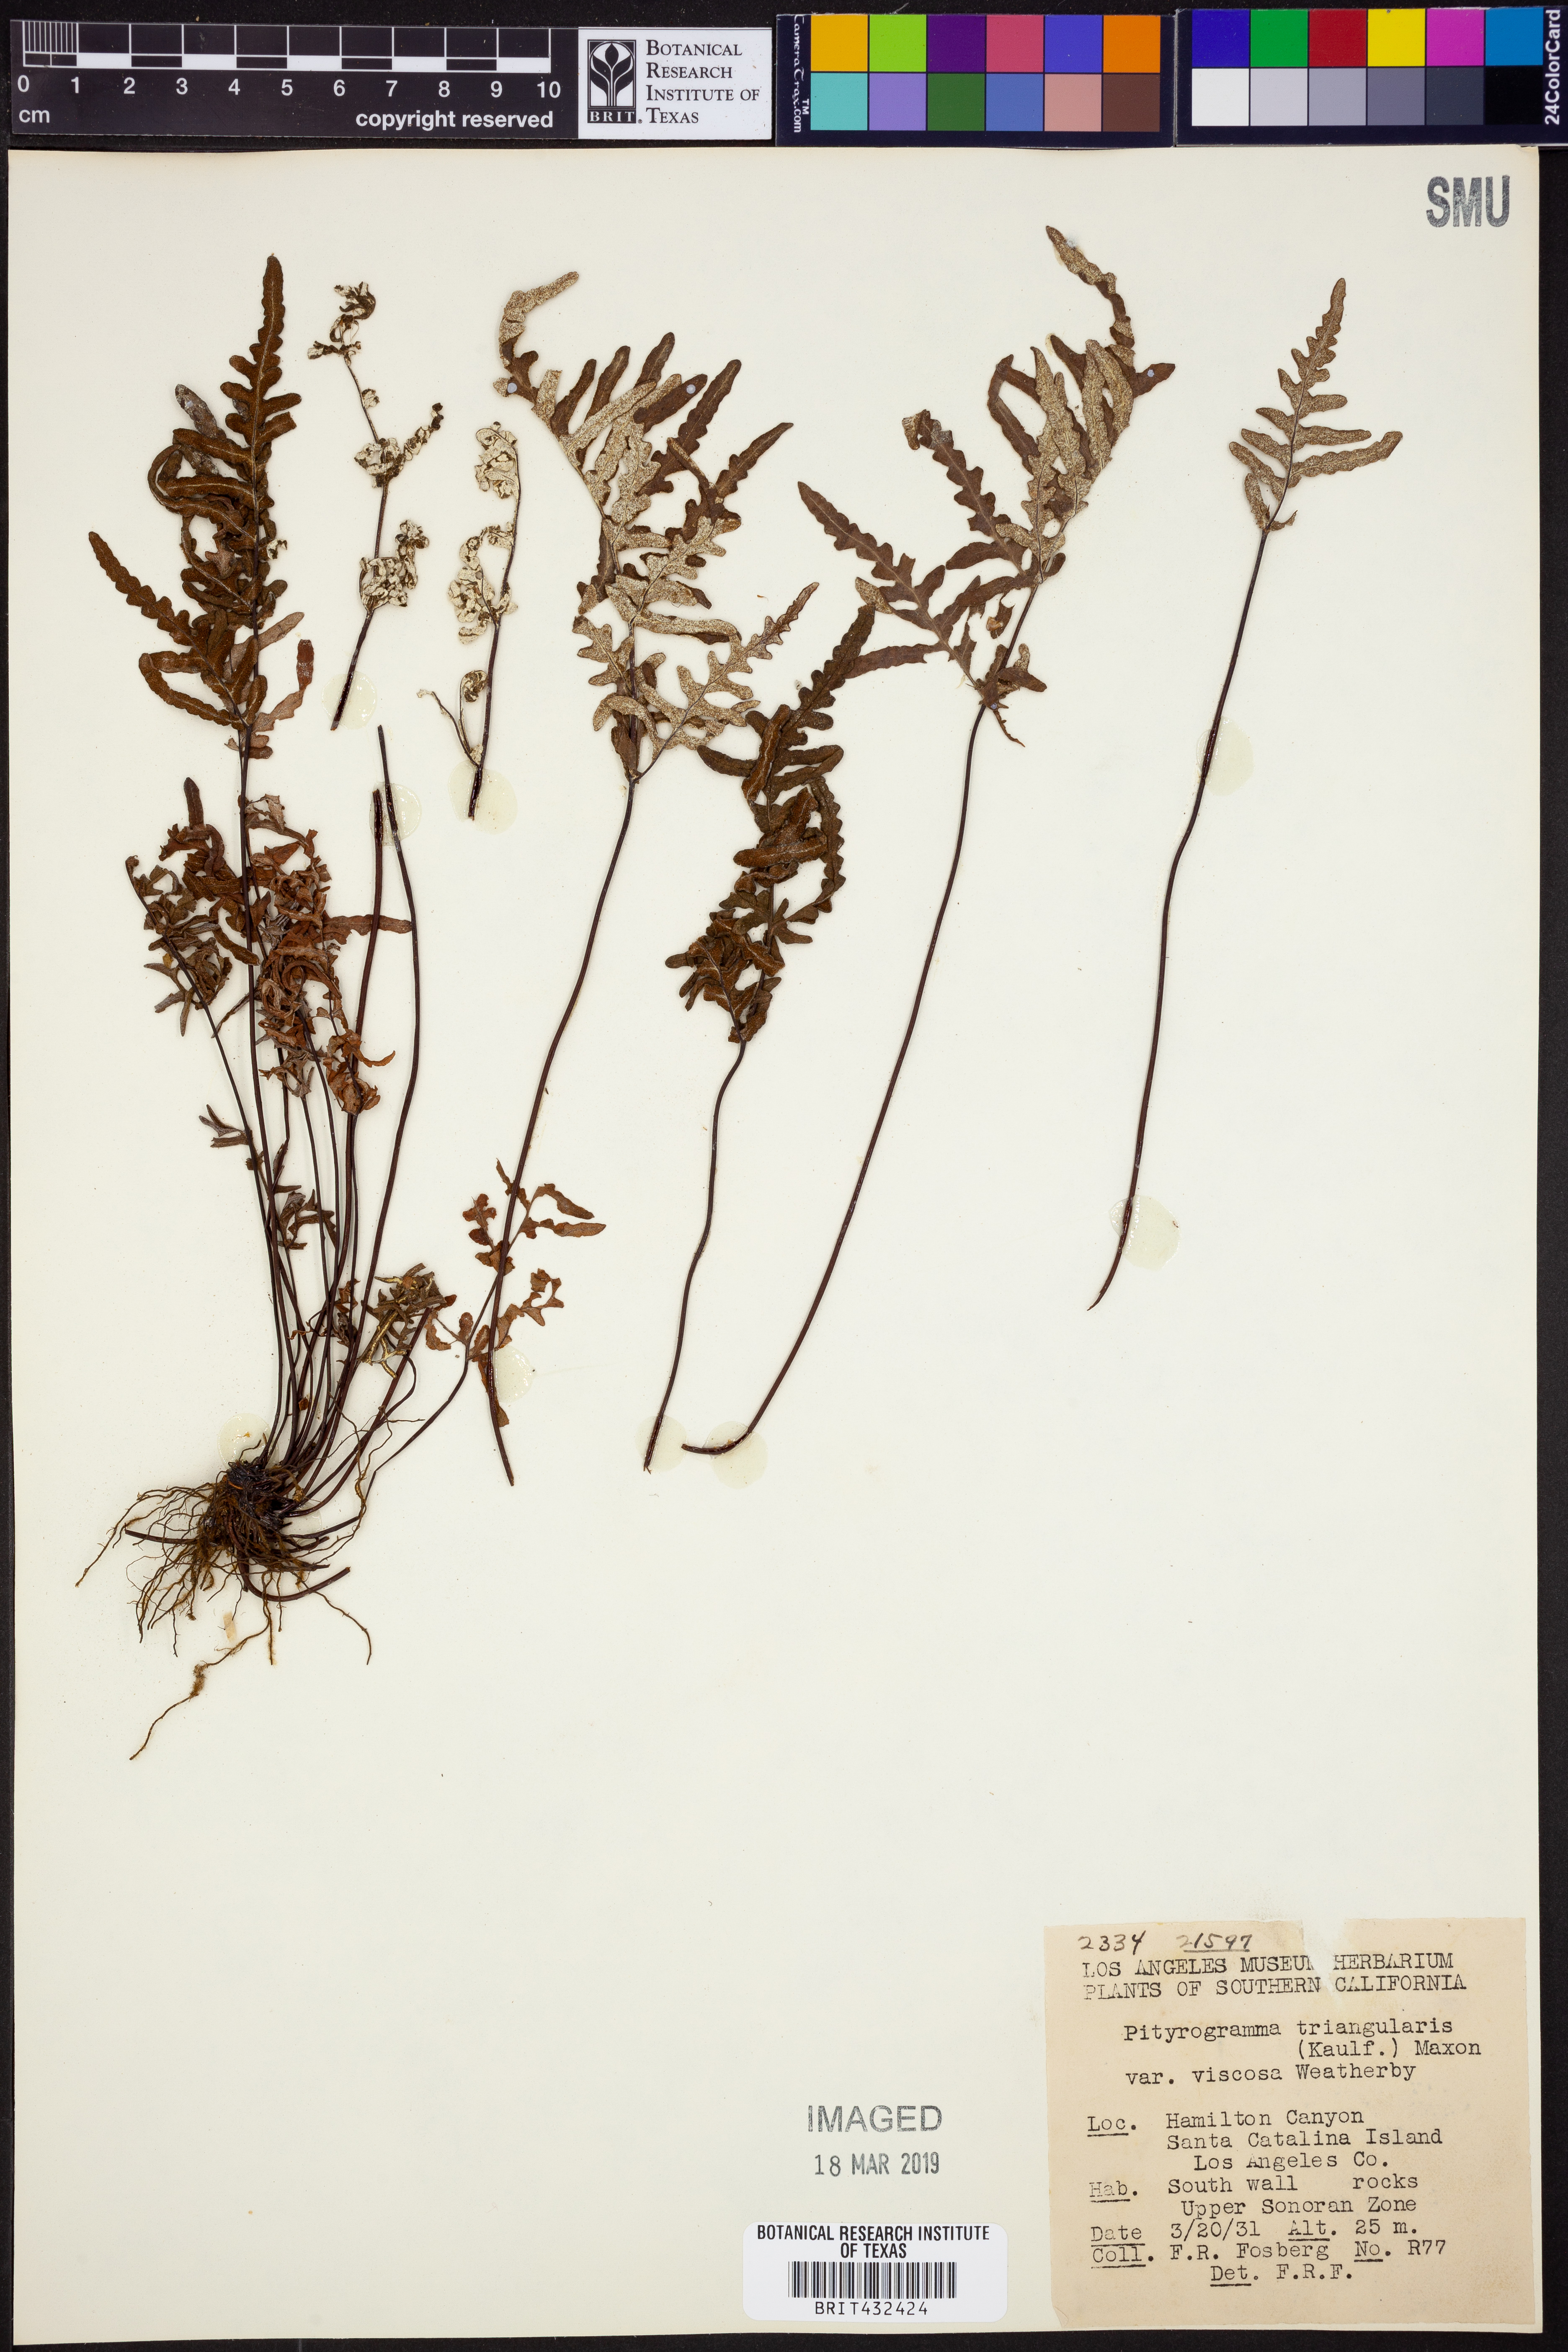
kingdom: Plantae
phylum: Tracheophyta
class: Polypodiopsida
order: Polypodiales
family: Pteridaceae
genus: Pentagramma
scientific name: Pentagramma viscosa
